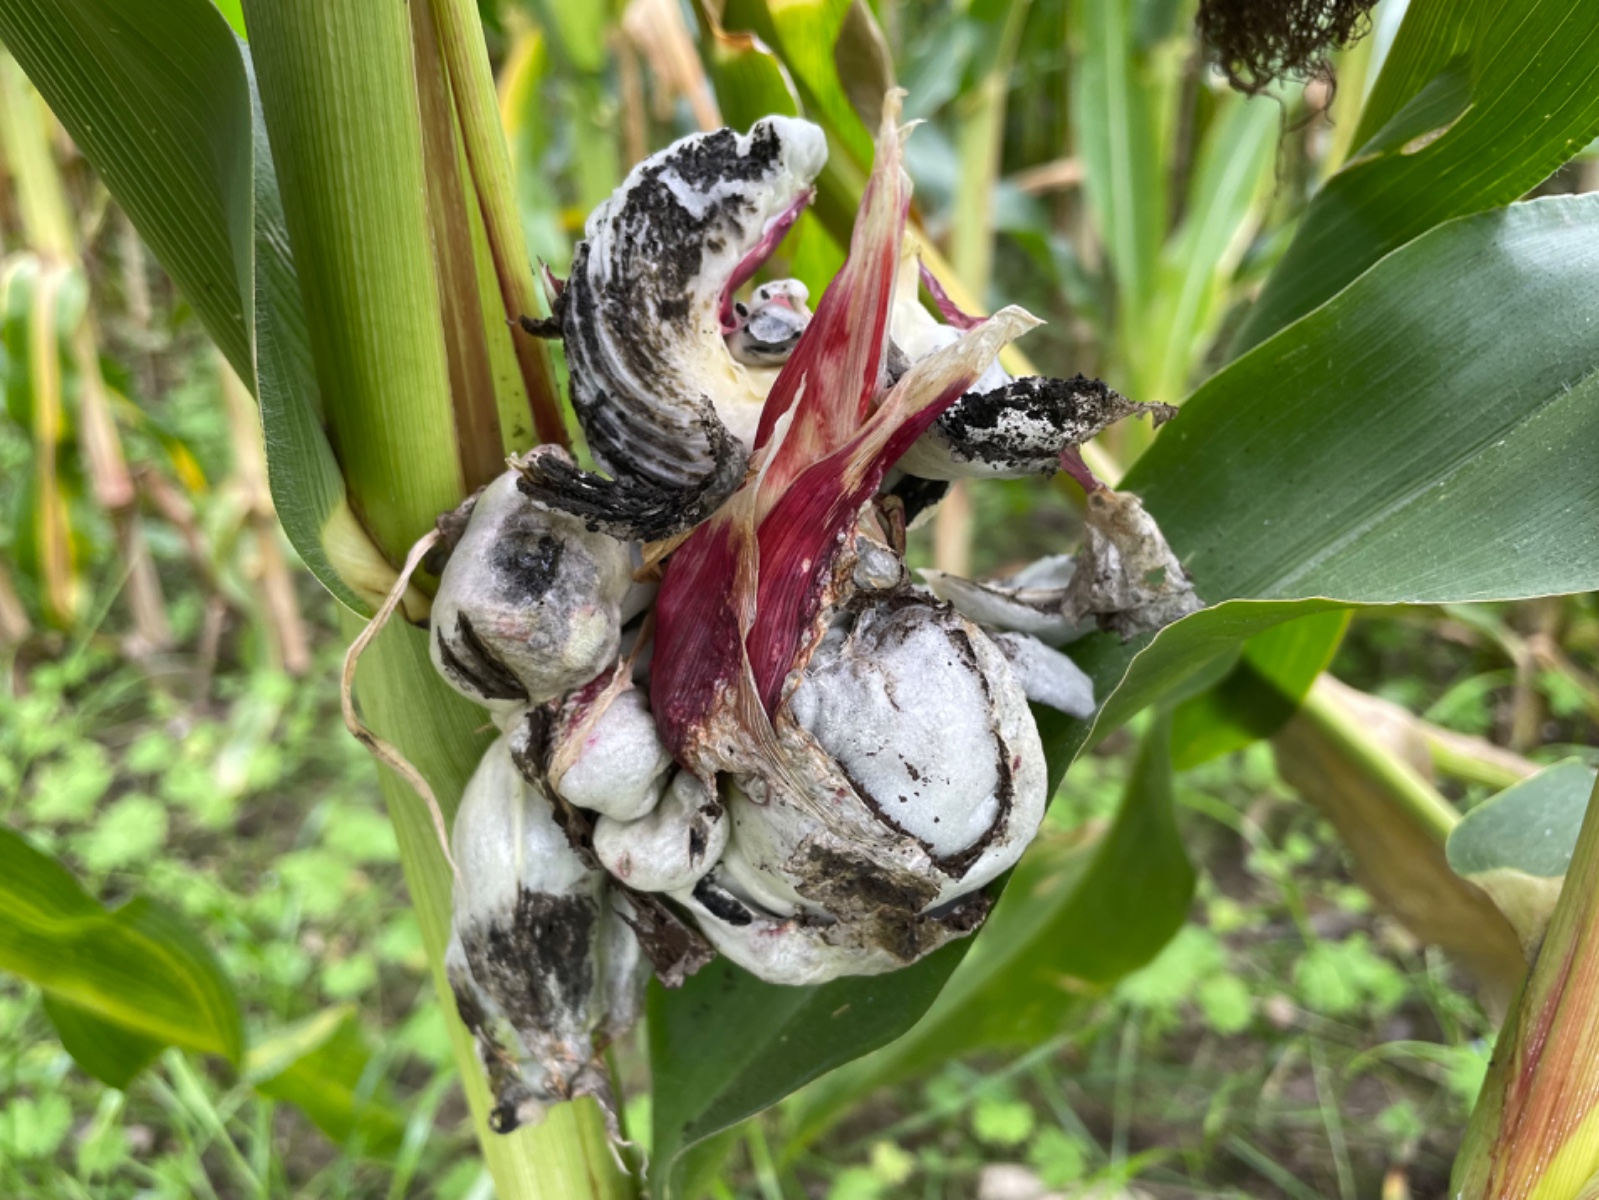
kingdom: Fungi
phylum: Basidiomycota
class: Ustilaginomycetes
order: Ustilaginales
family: Ustilaginaceae
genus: Mycosarcoma
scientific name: Mycosarcoma maydis
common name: majs-brand
